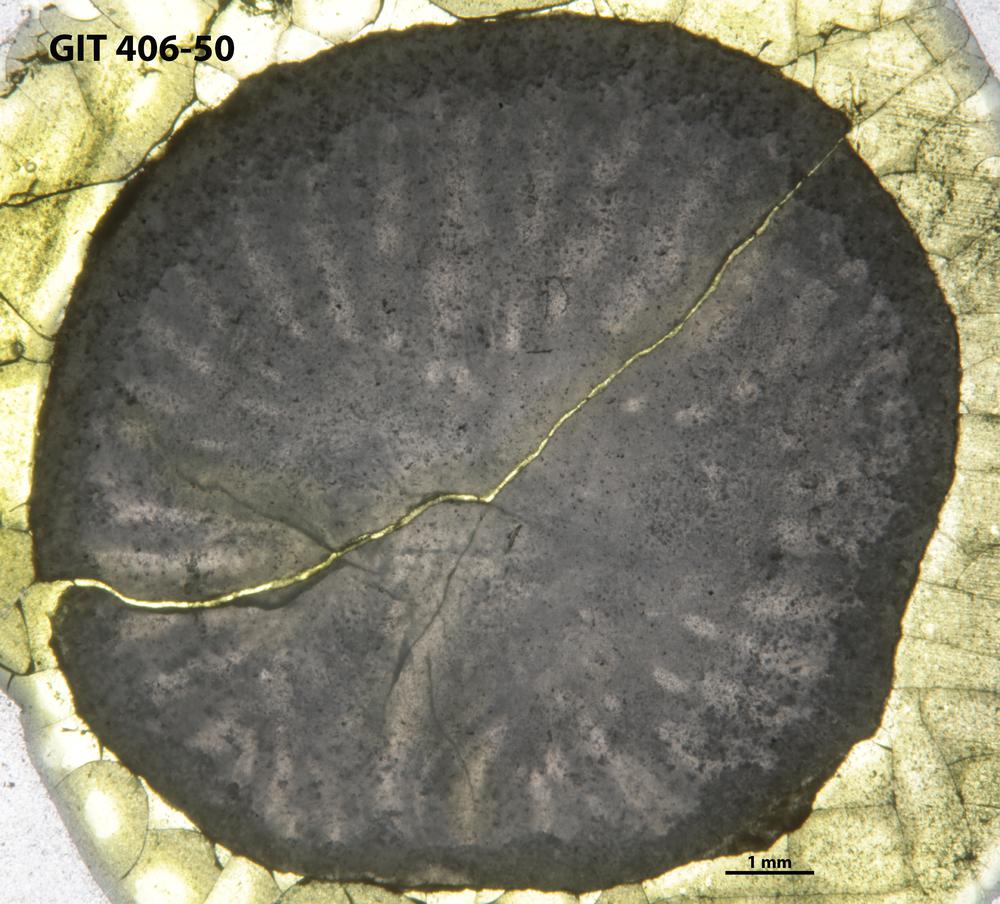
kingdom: Animalia
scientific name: Animalia
